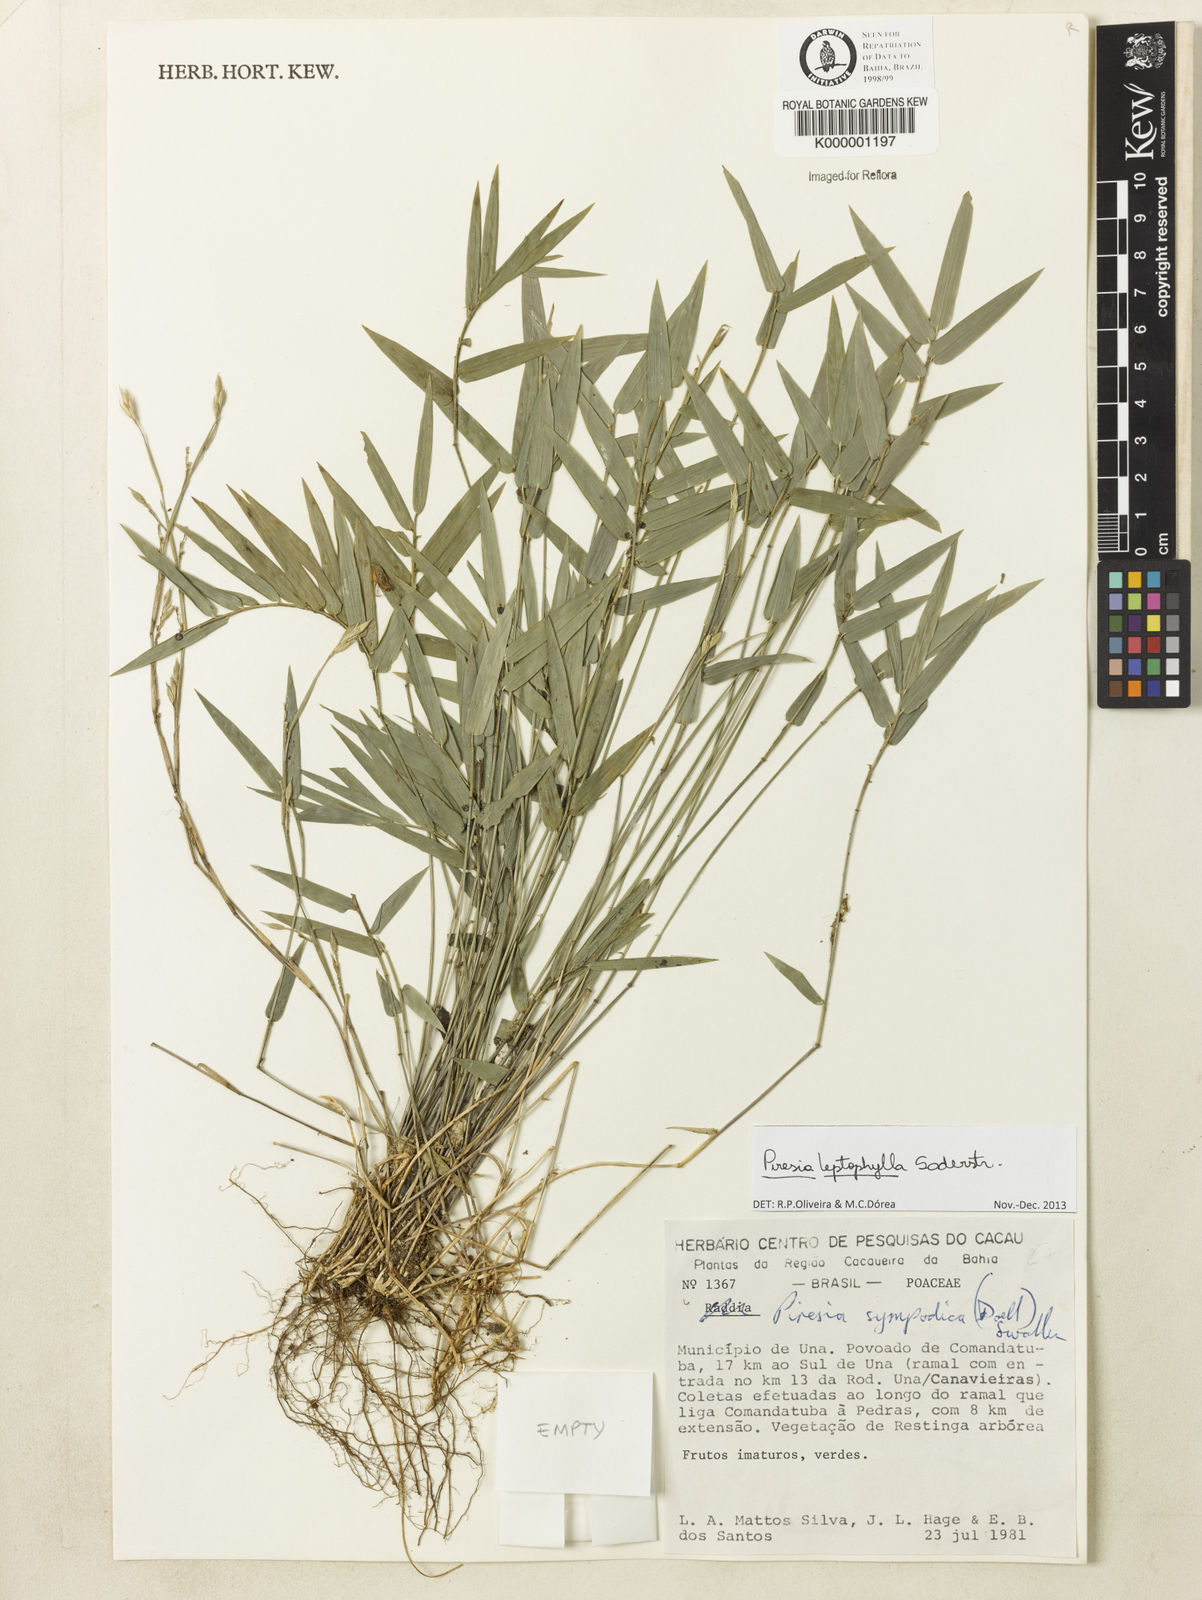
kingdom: Plantae
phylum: Tracheophyta
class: Liliopsida
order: Poales
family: Poaceae
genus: Piresia
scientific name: Piresia leptophylla
